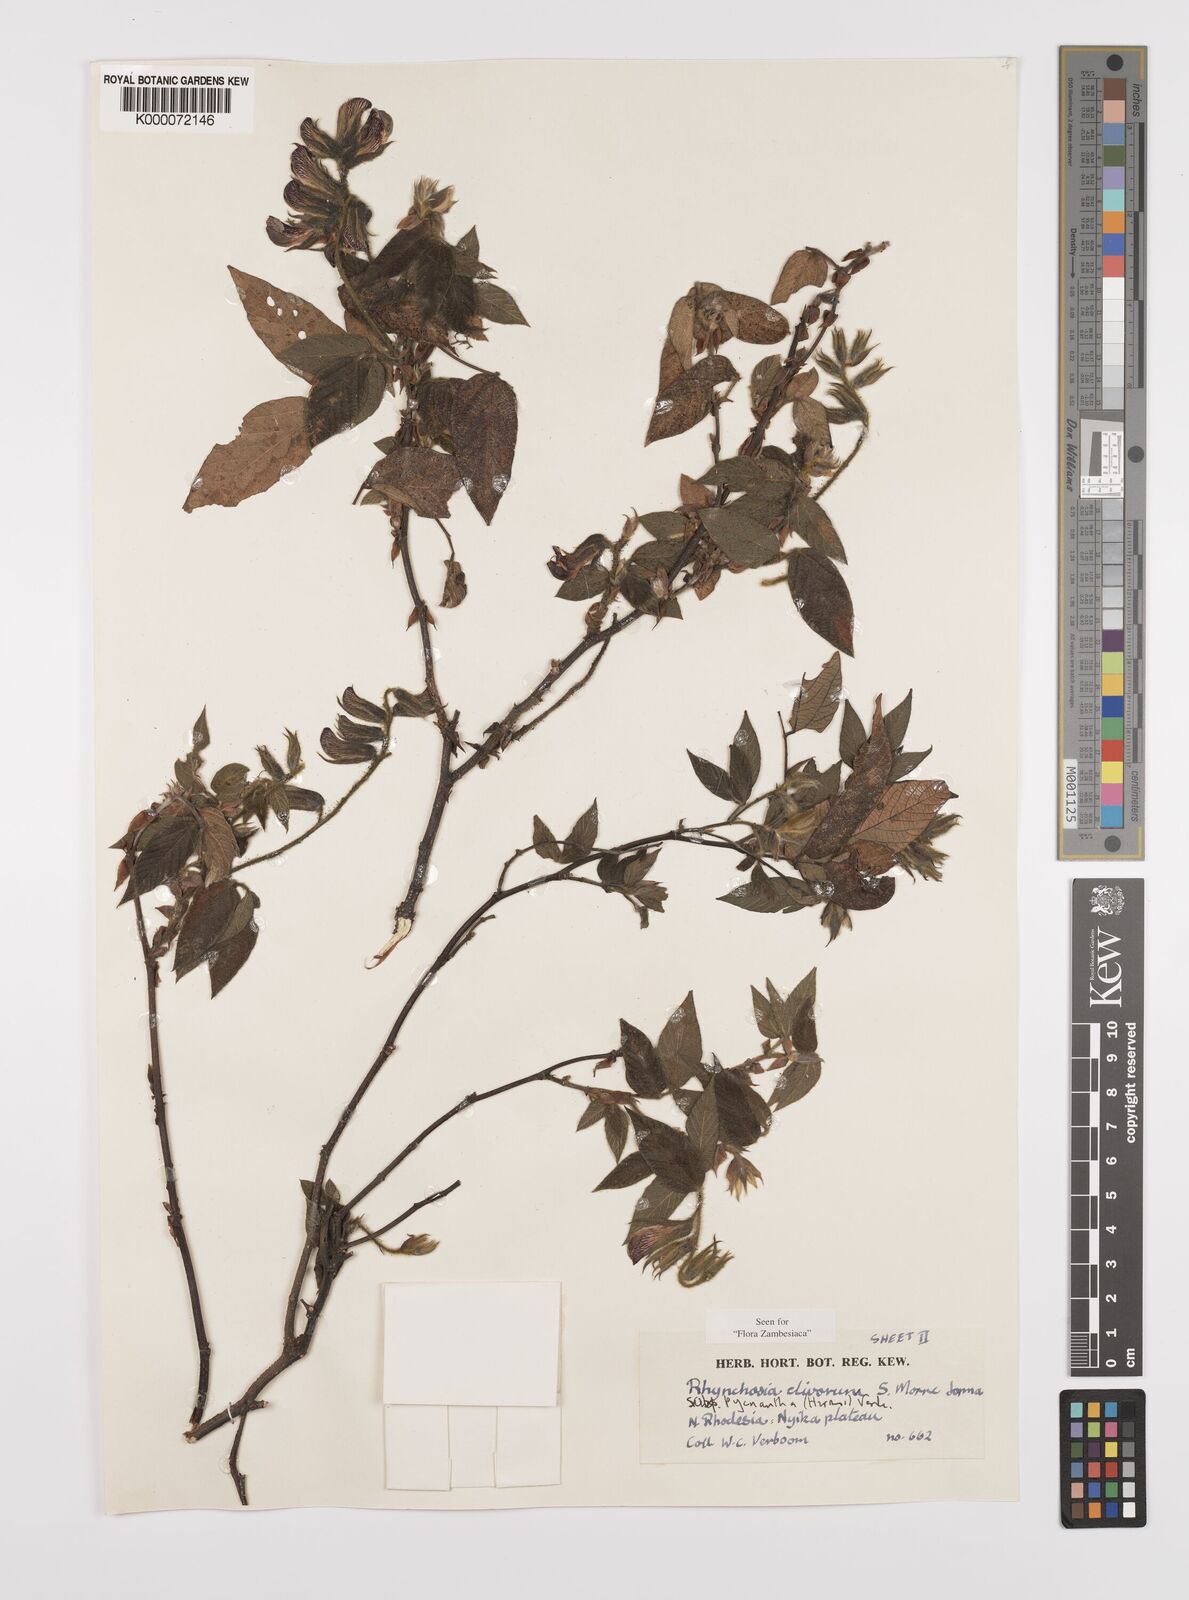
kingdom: Plantae
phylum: Tracheophyta
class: Magnoliopsida
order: Fabales
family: Fabaceae
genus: Rhynchosia
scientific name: Rhynchosia clivorum
